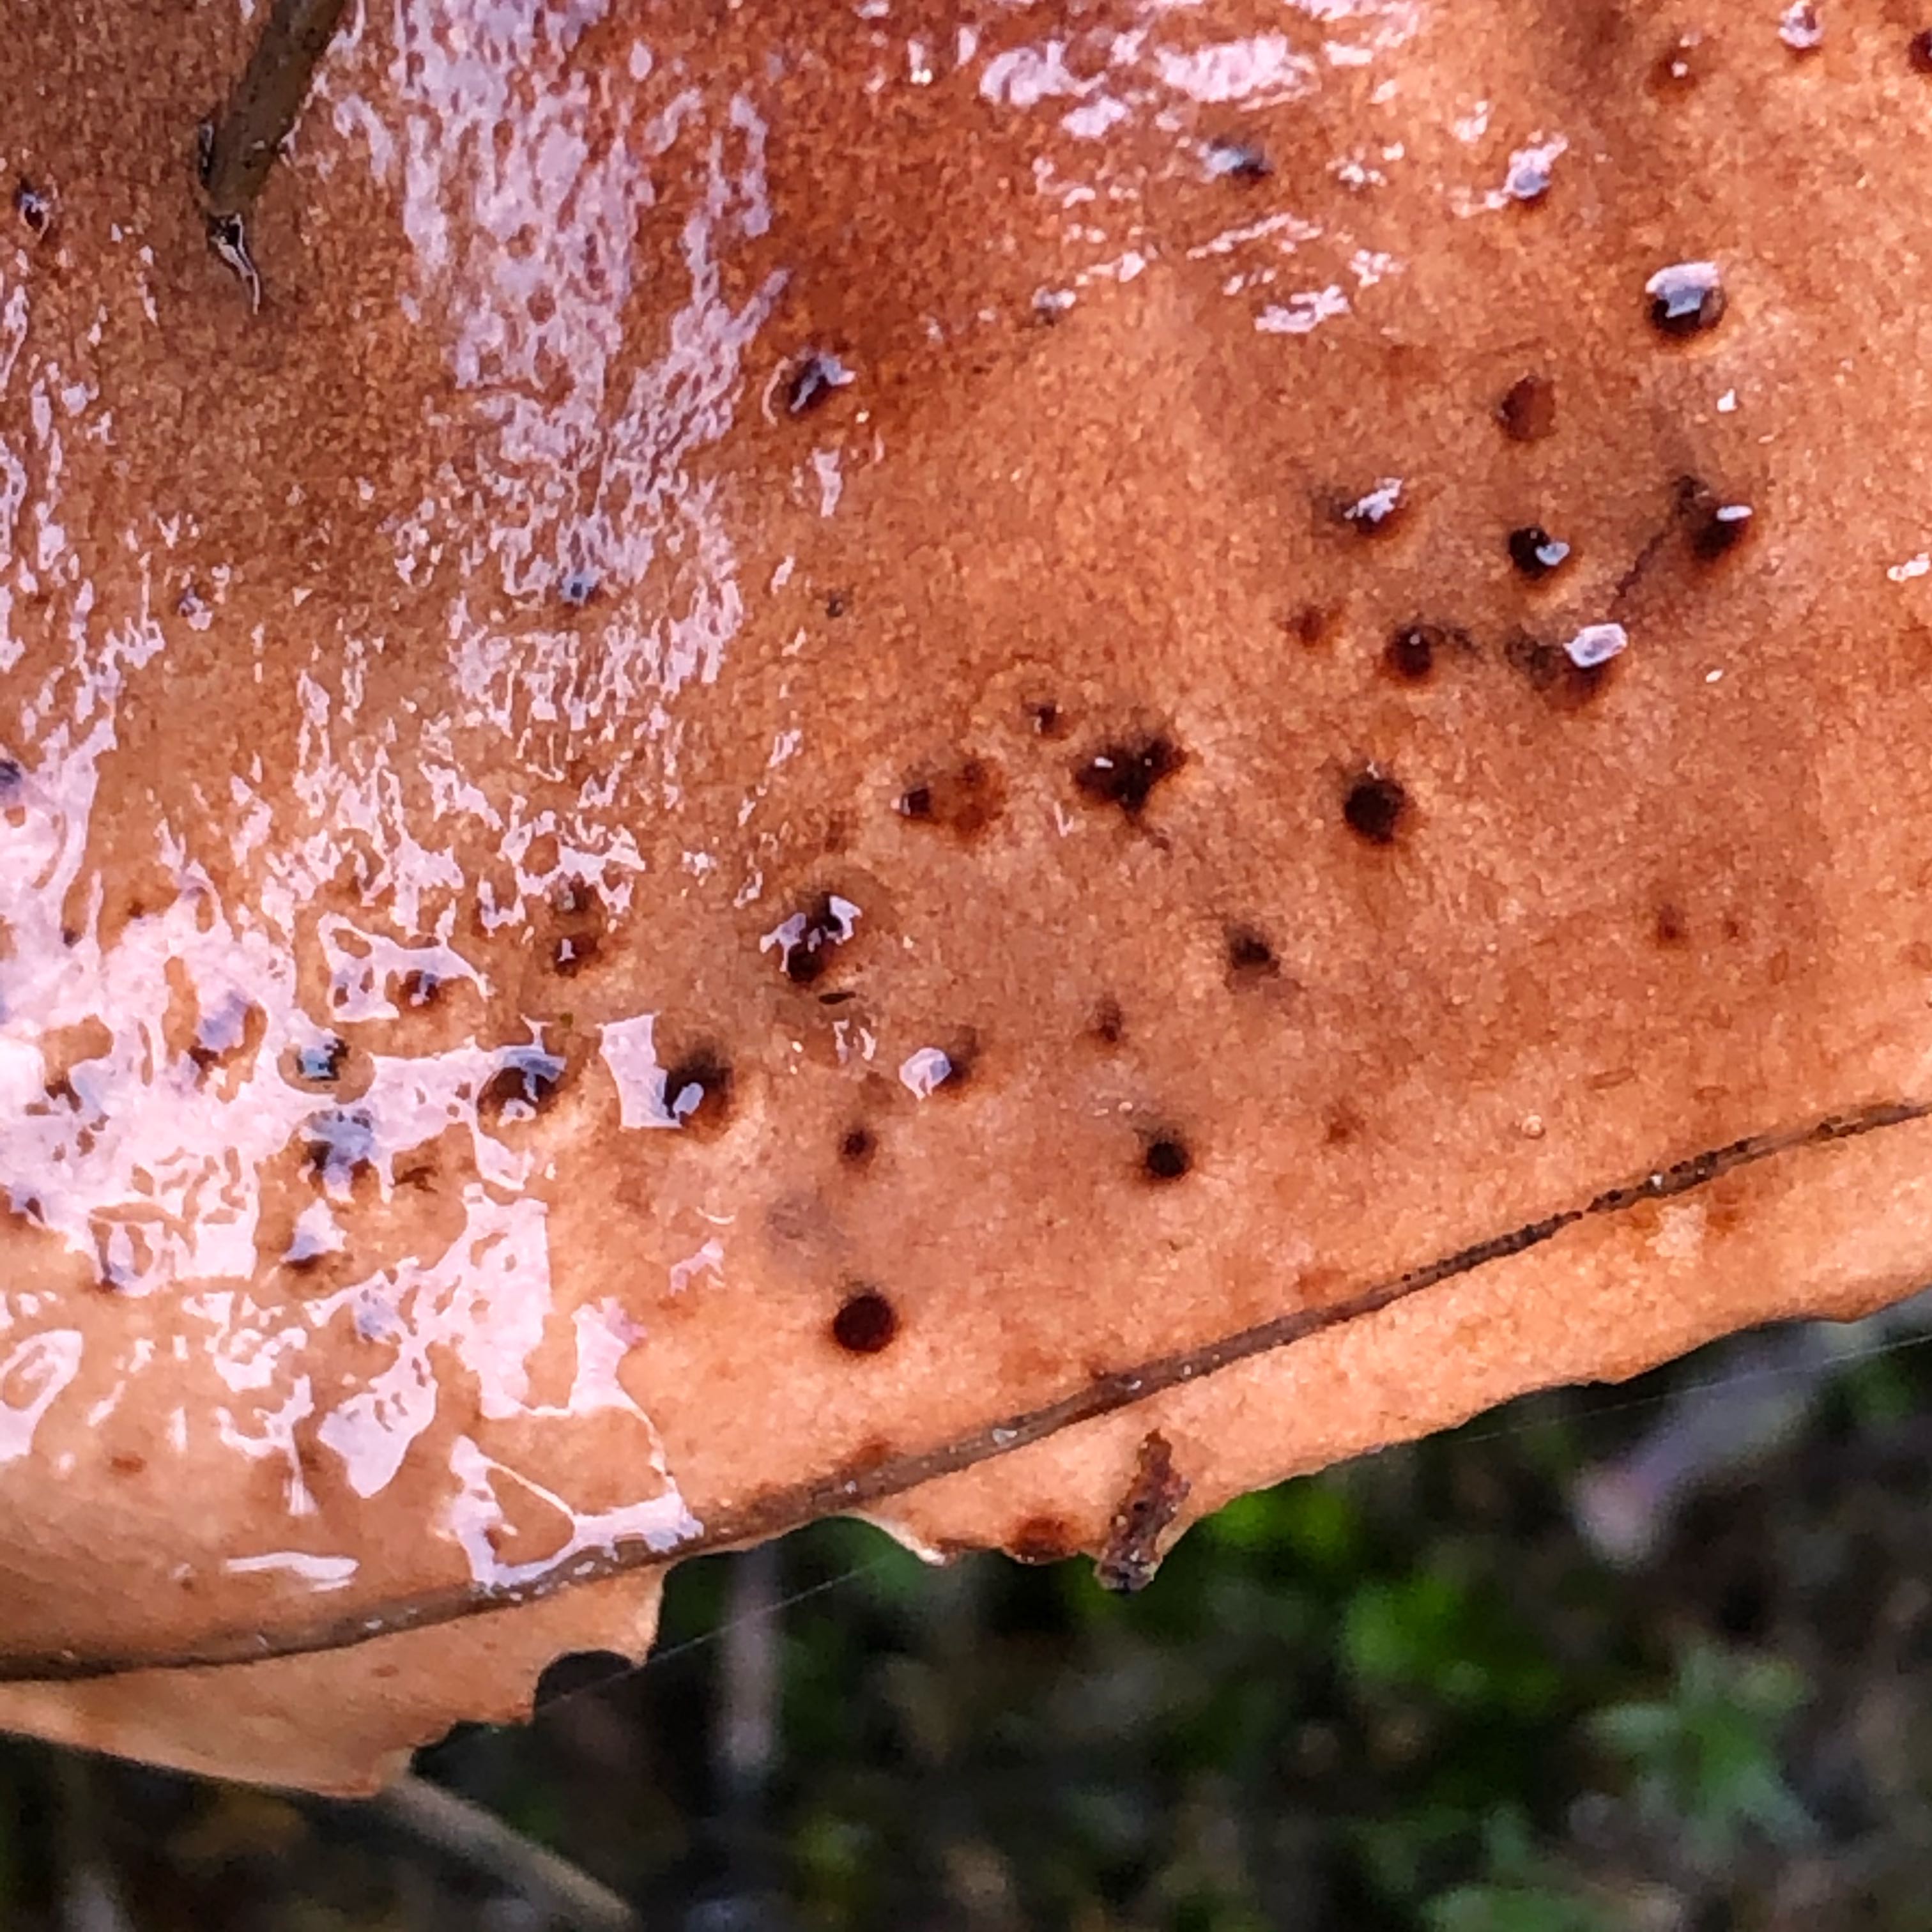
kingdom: Fungi
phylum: Basidiomycota
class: Agaricomycetes
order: Agaricales
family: Tricholomataceae
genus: Tricholoma
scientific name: Tricholoma pessundatum
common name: dråbeplettet ridderhat
